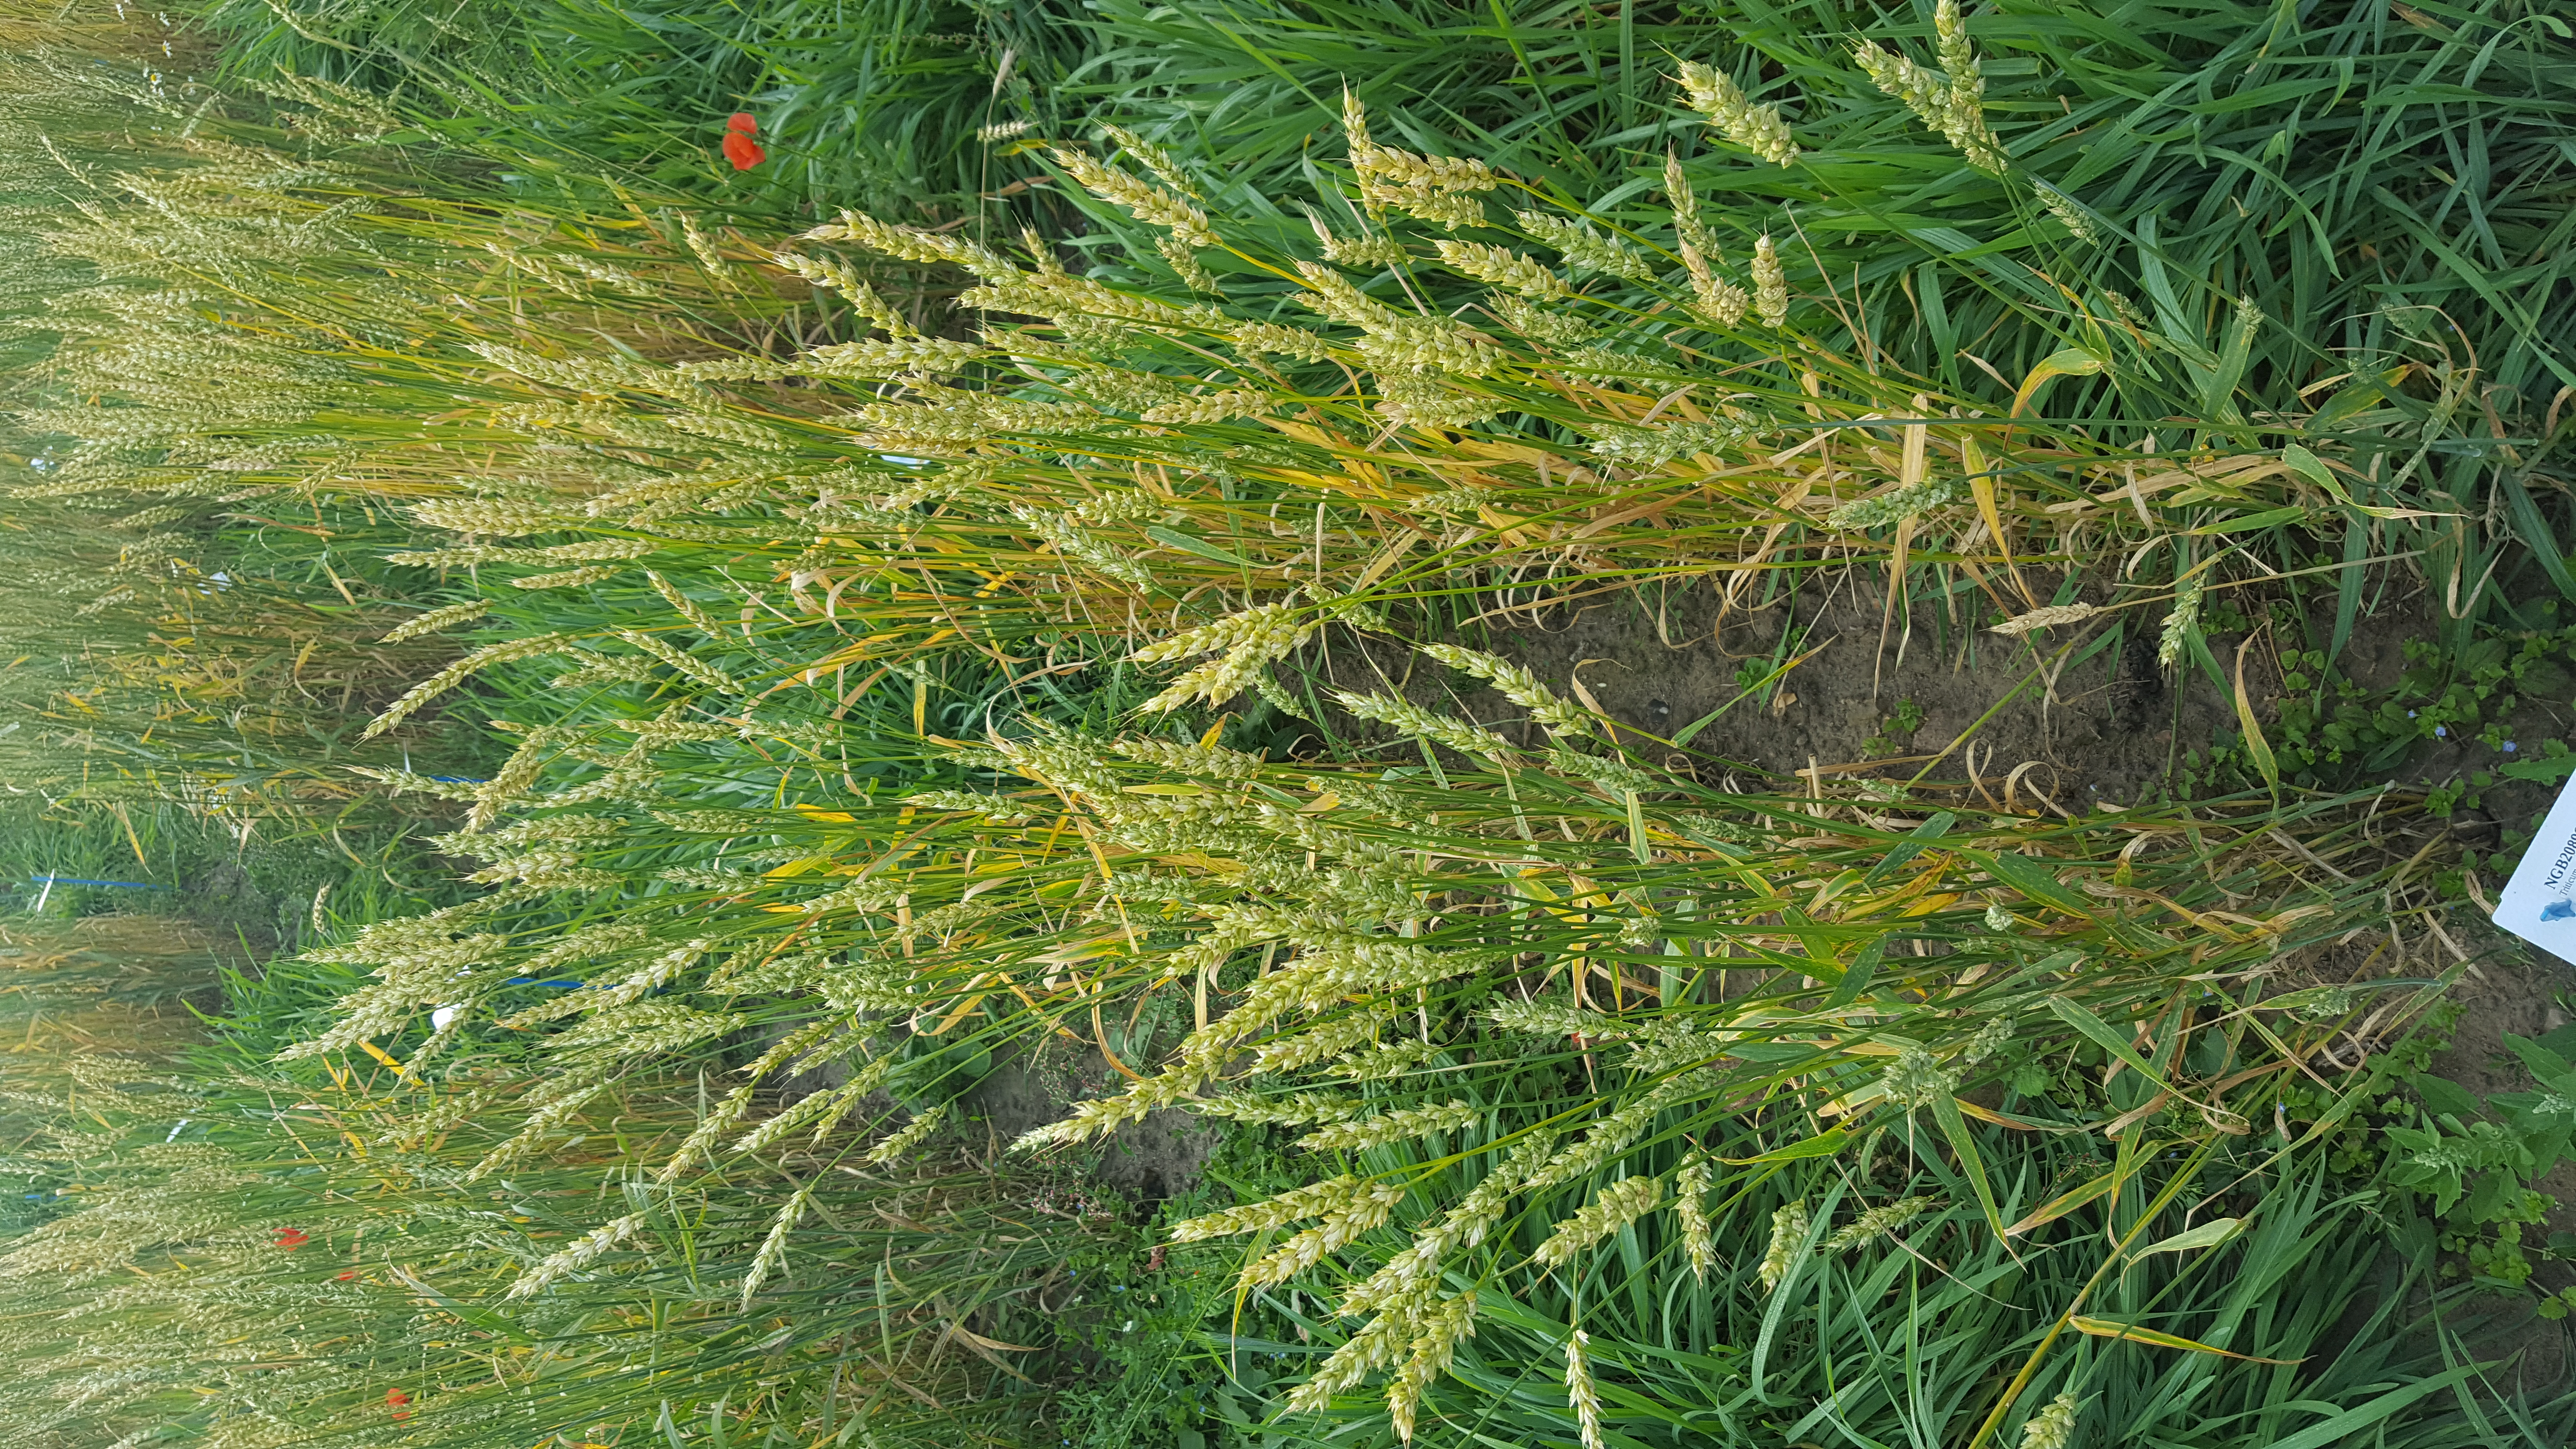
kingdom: Plantae
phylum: Tracheophyta
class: Liliopsida
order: Poales
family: Poaceae
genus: Triticum
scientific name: Triticum aestivum
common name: Common wheat
